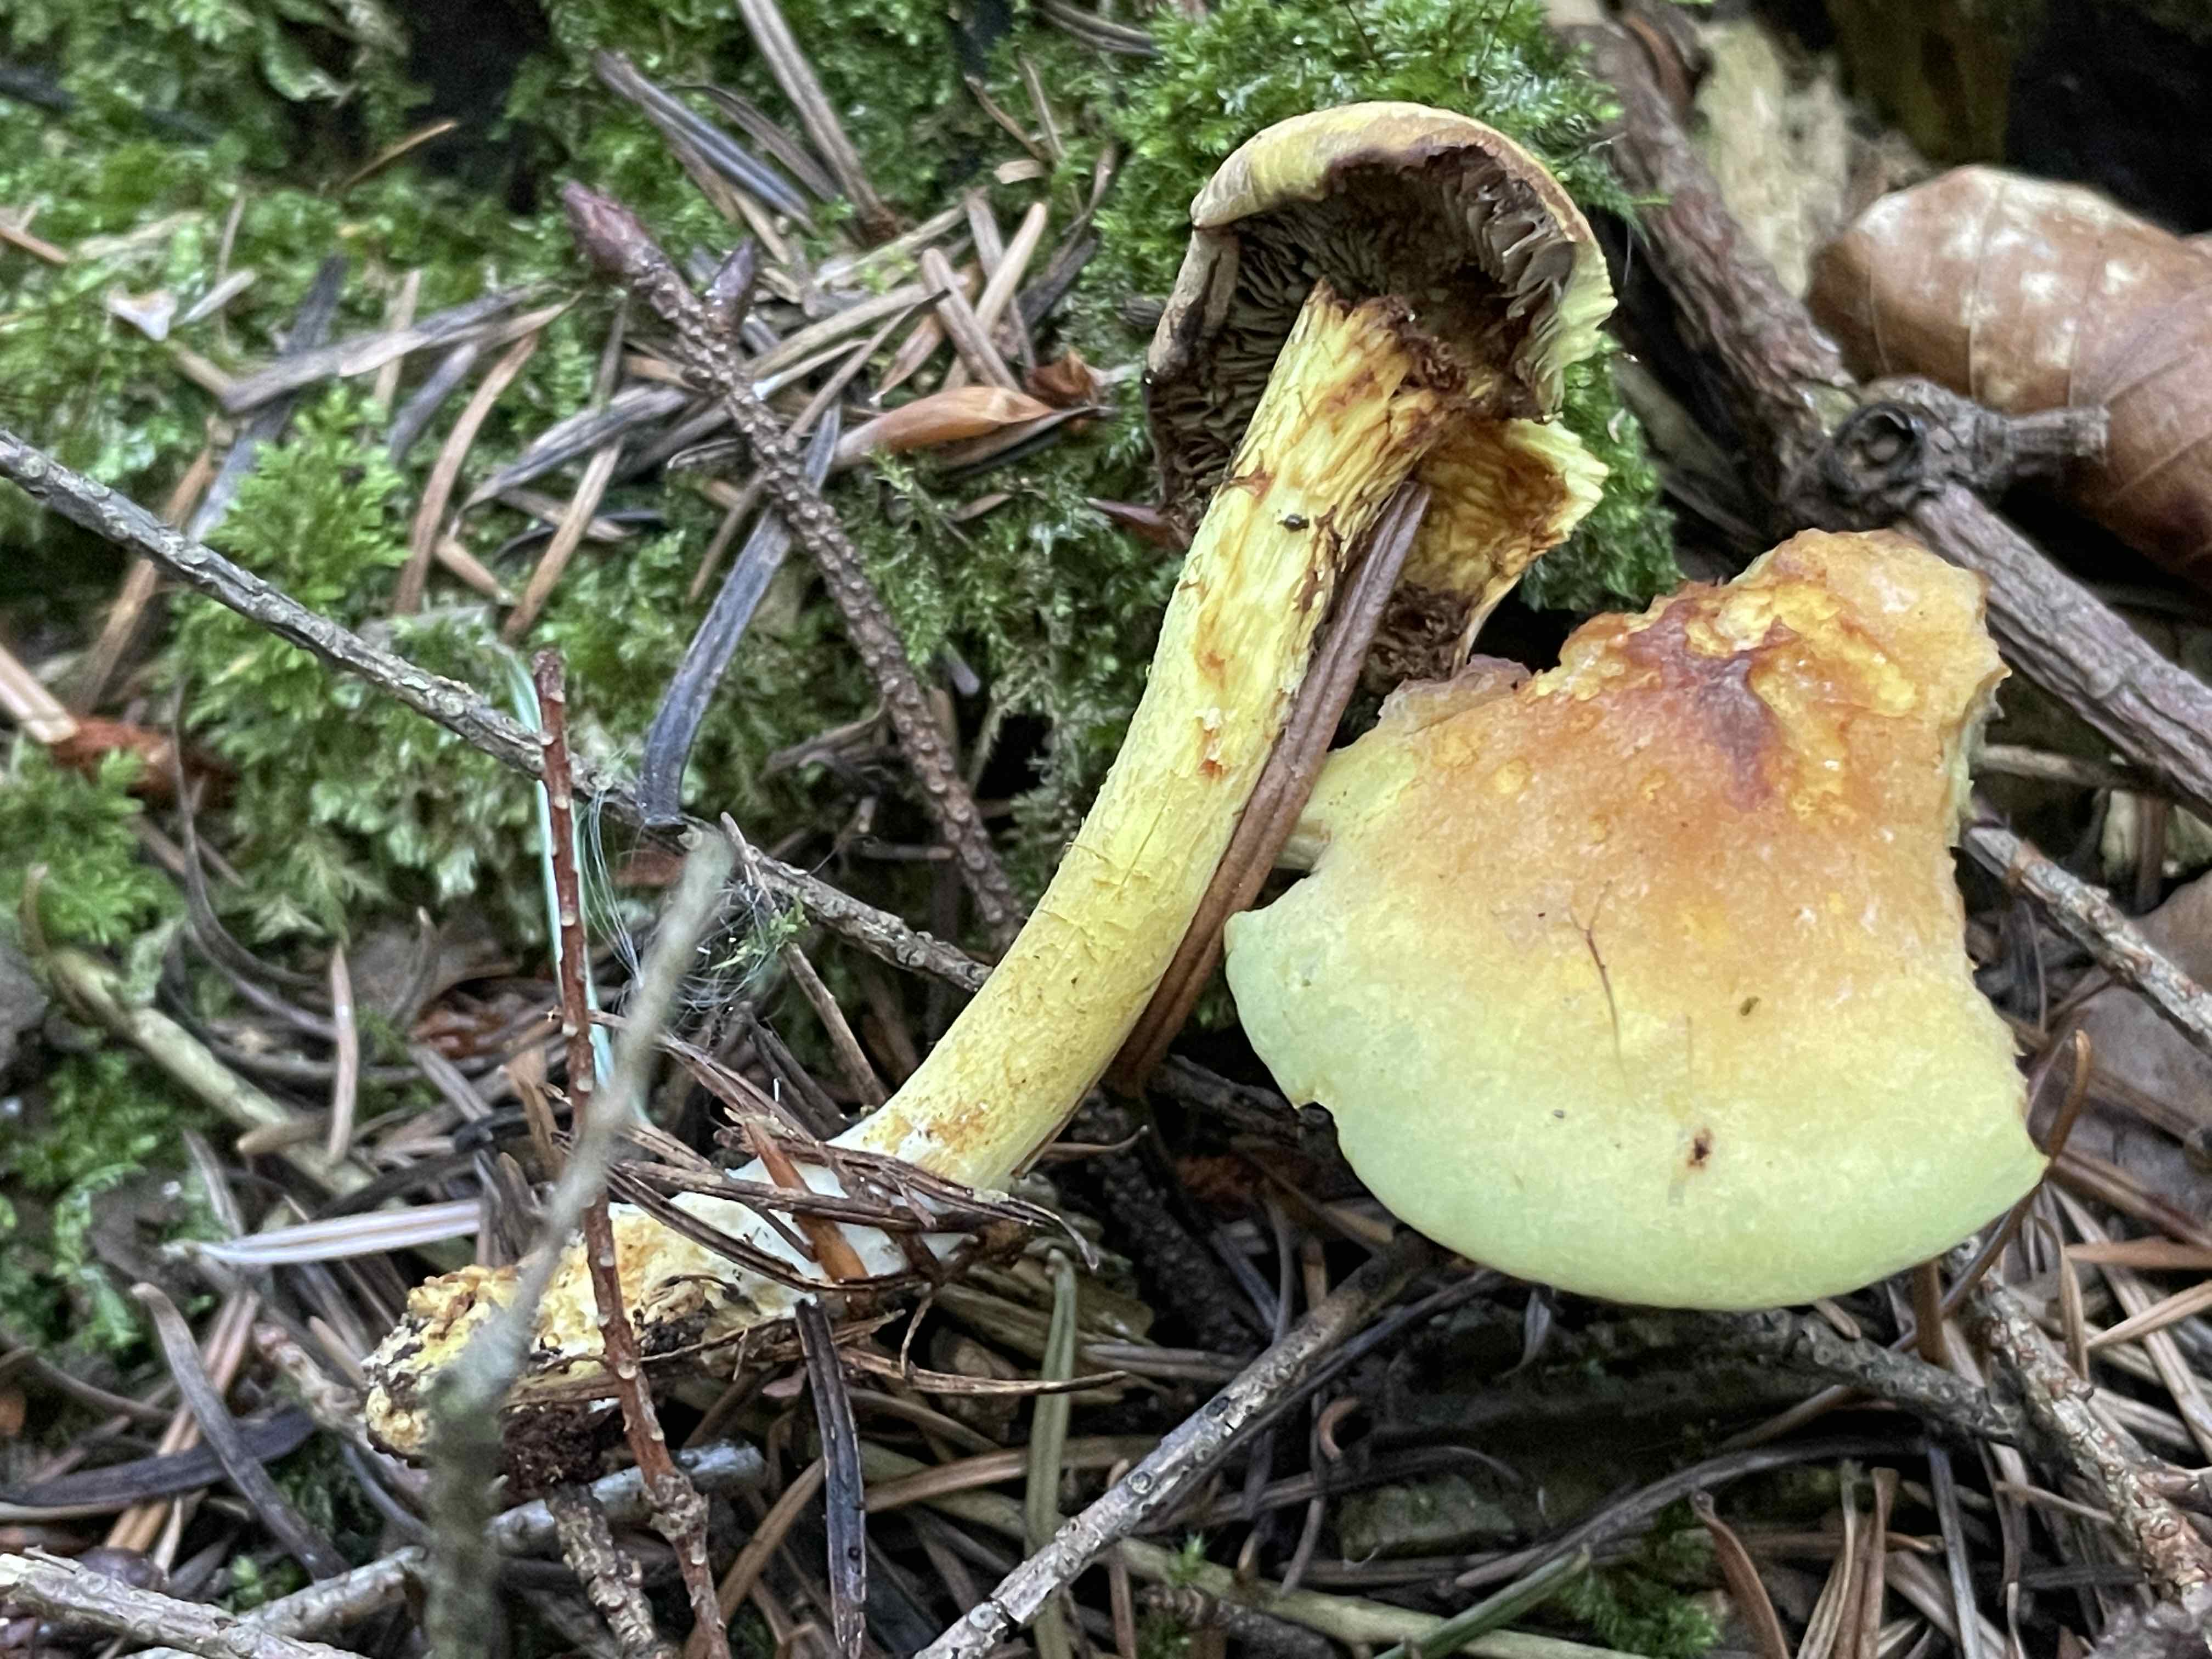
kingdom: Fungi
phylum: Basidiomycota
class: Agaricomycetes
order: Agaricales
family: Strophariaceae
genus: Hypholoma
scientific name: Hypholoma fasciculare
